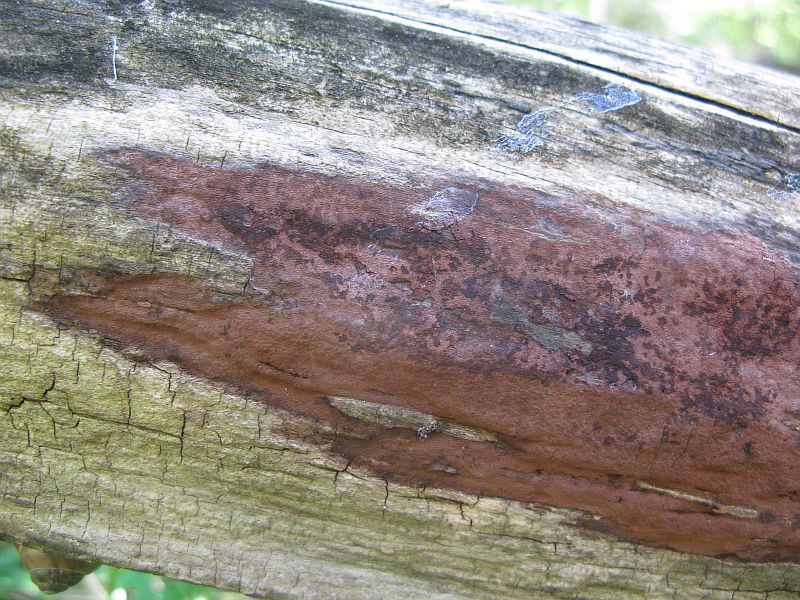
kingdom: Fungi
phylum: Ascomycota
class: Sordariomycetes
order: Xylariales
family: Hypoxylaceae
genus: Hypoxylon
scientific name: Hypoxylon macrocarpum
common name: skorpe-kulbær
